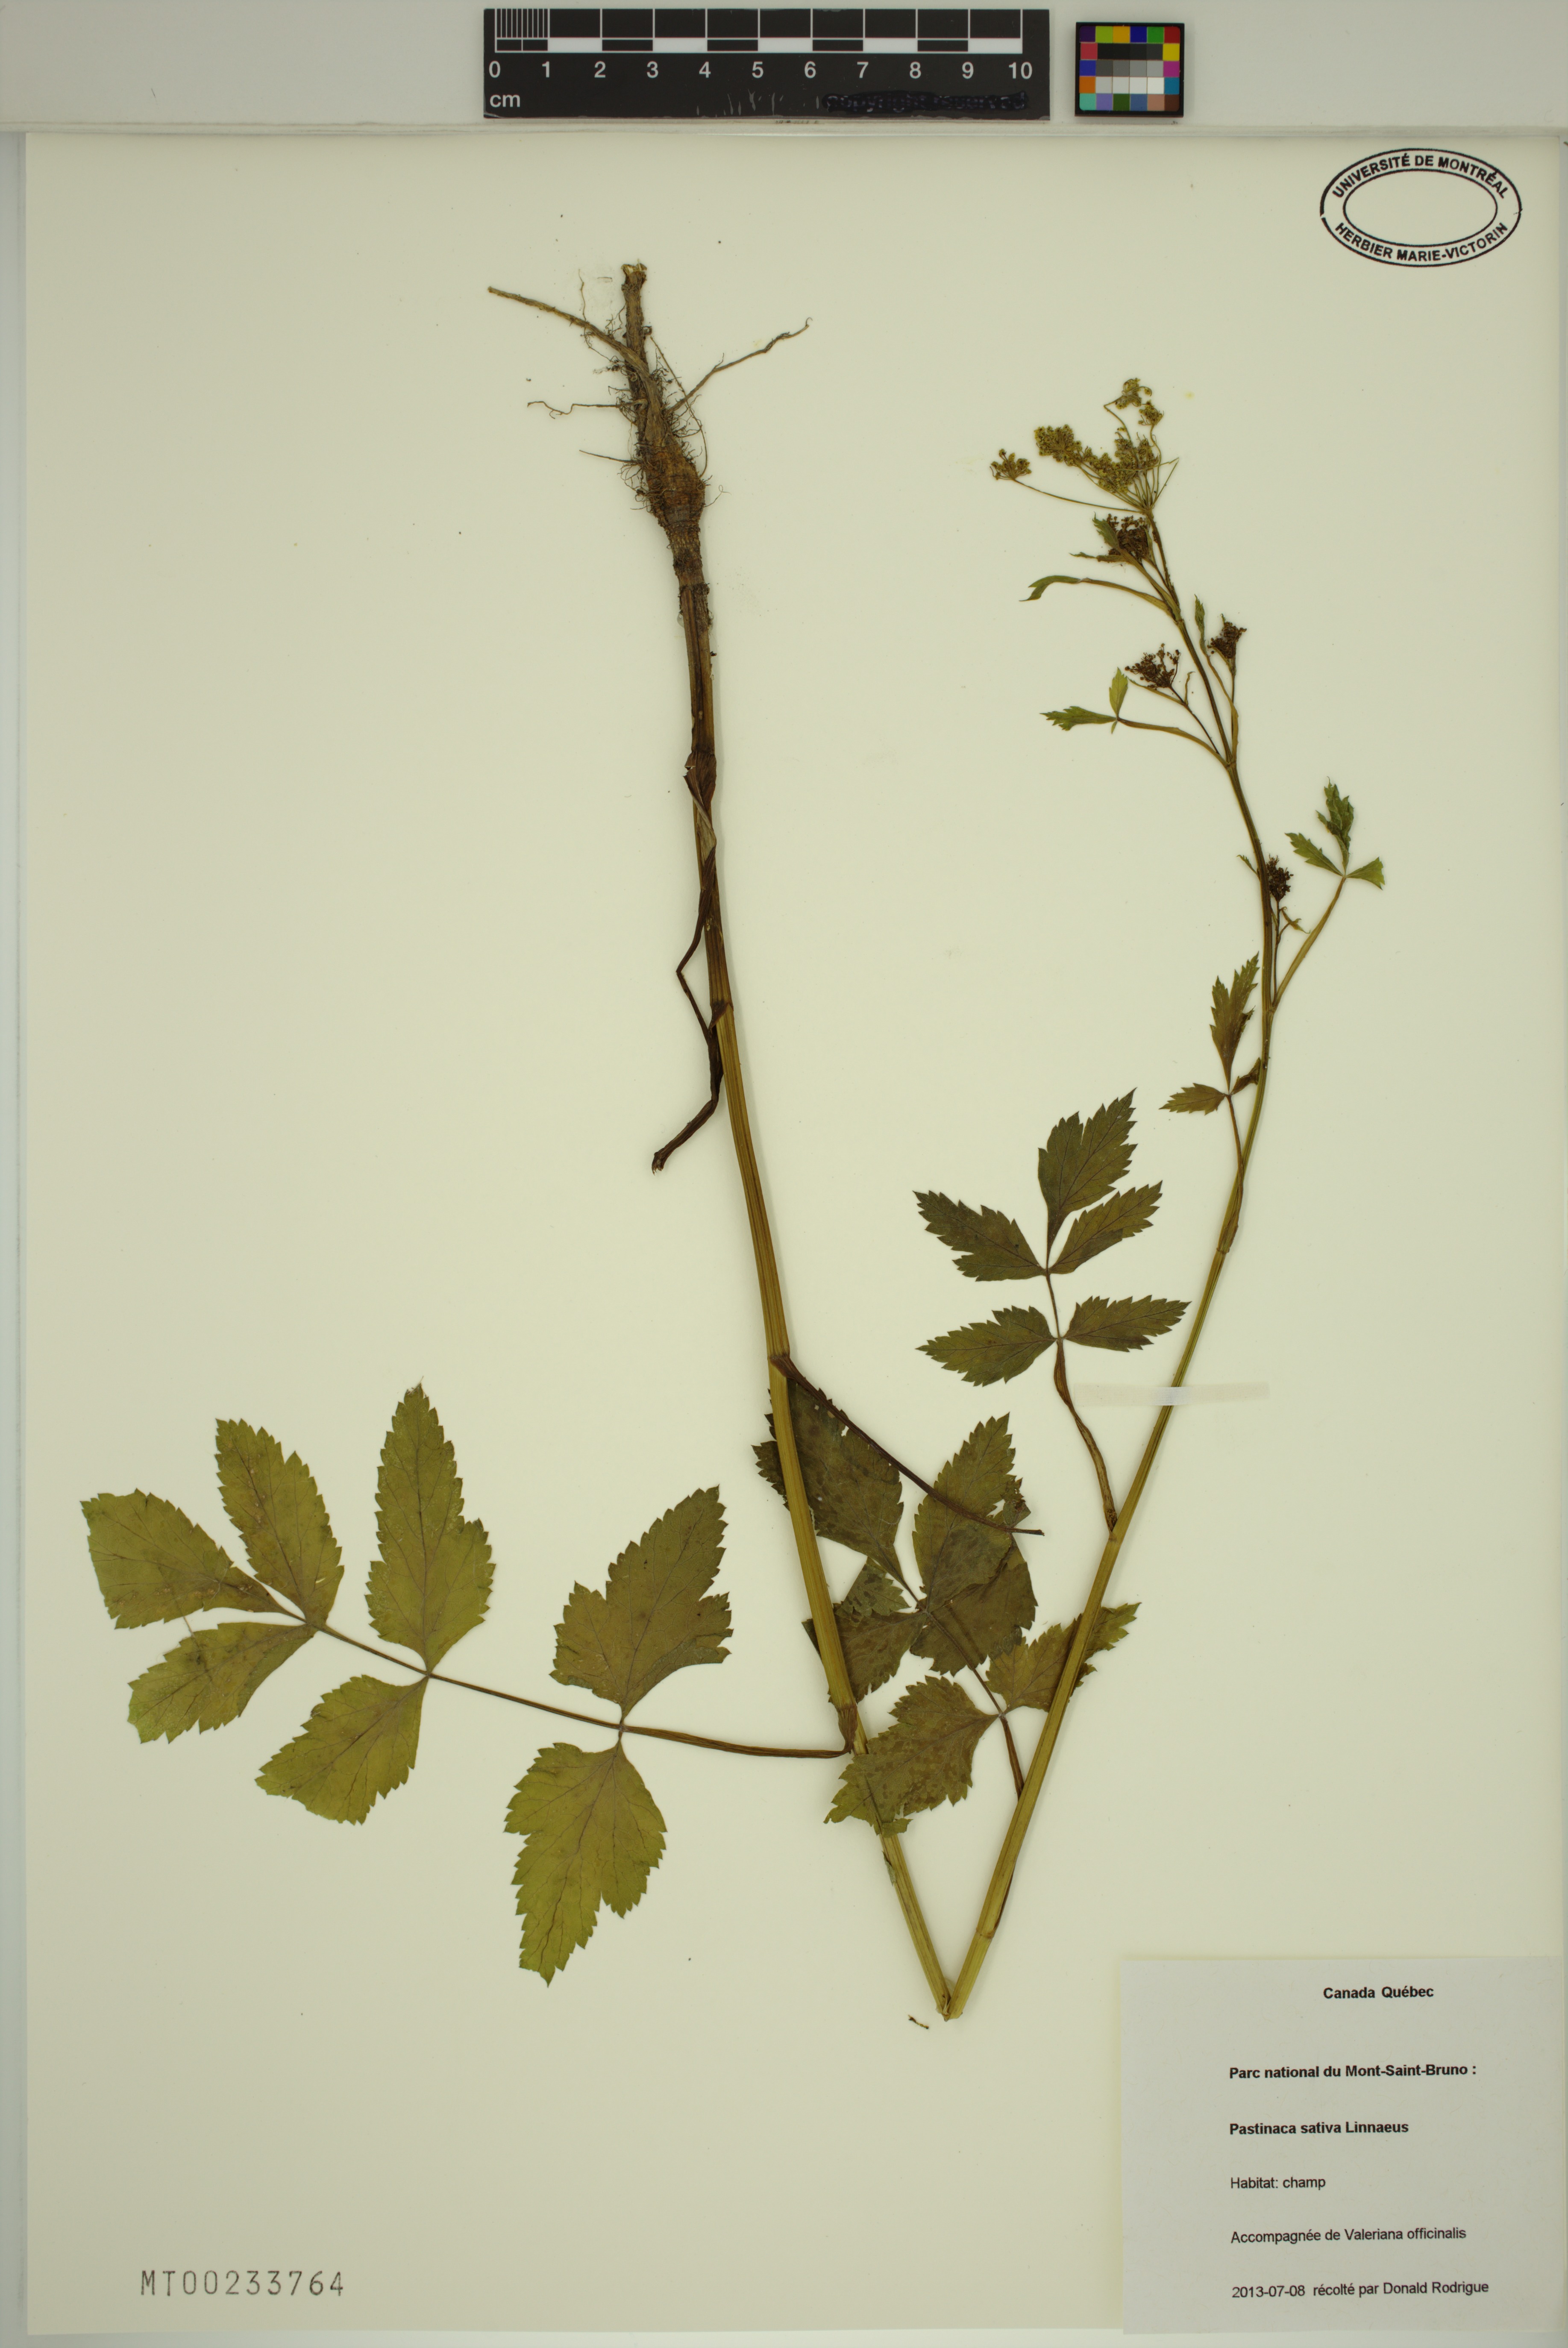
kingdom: Plantae
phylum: Tracheophyta
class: Magnoliopsida
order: Apiales
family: Apiaceae
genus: Pastinaca
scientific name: Pastinaca sativa
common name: Wild parsnip
